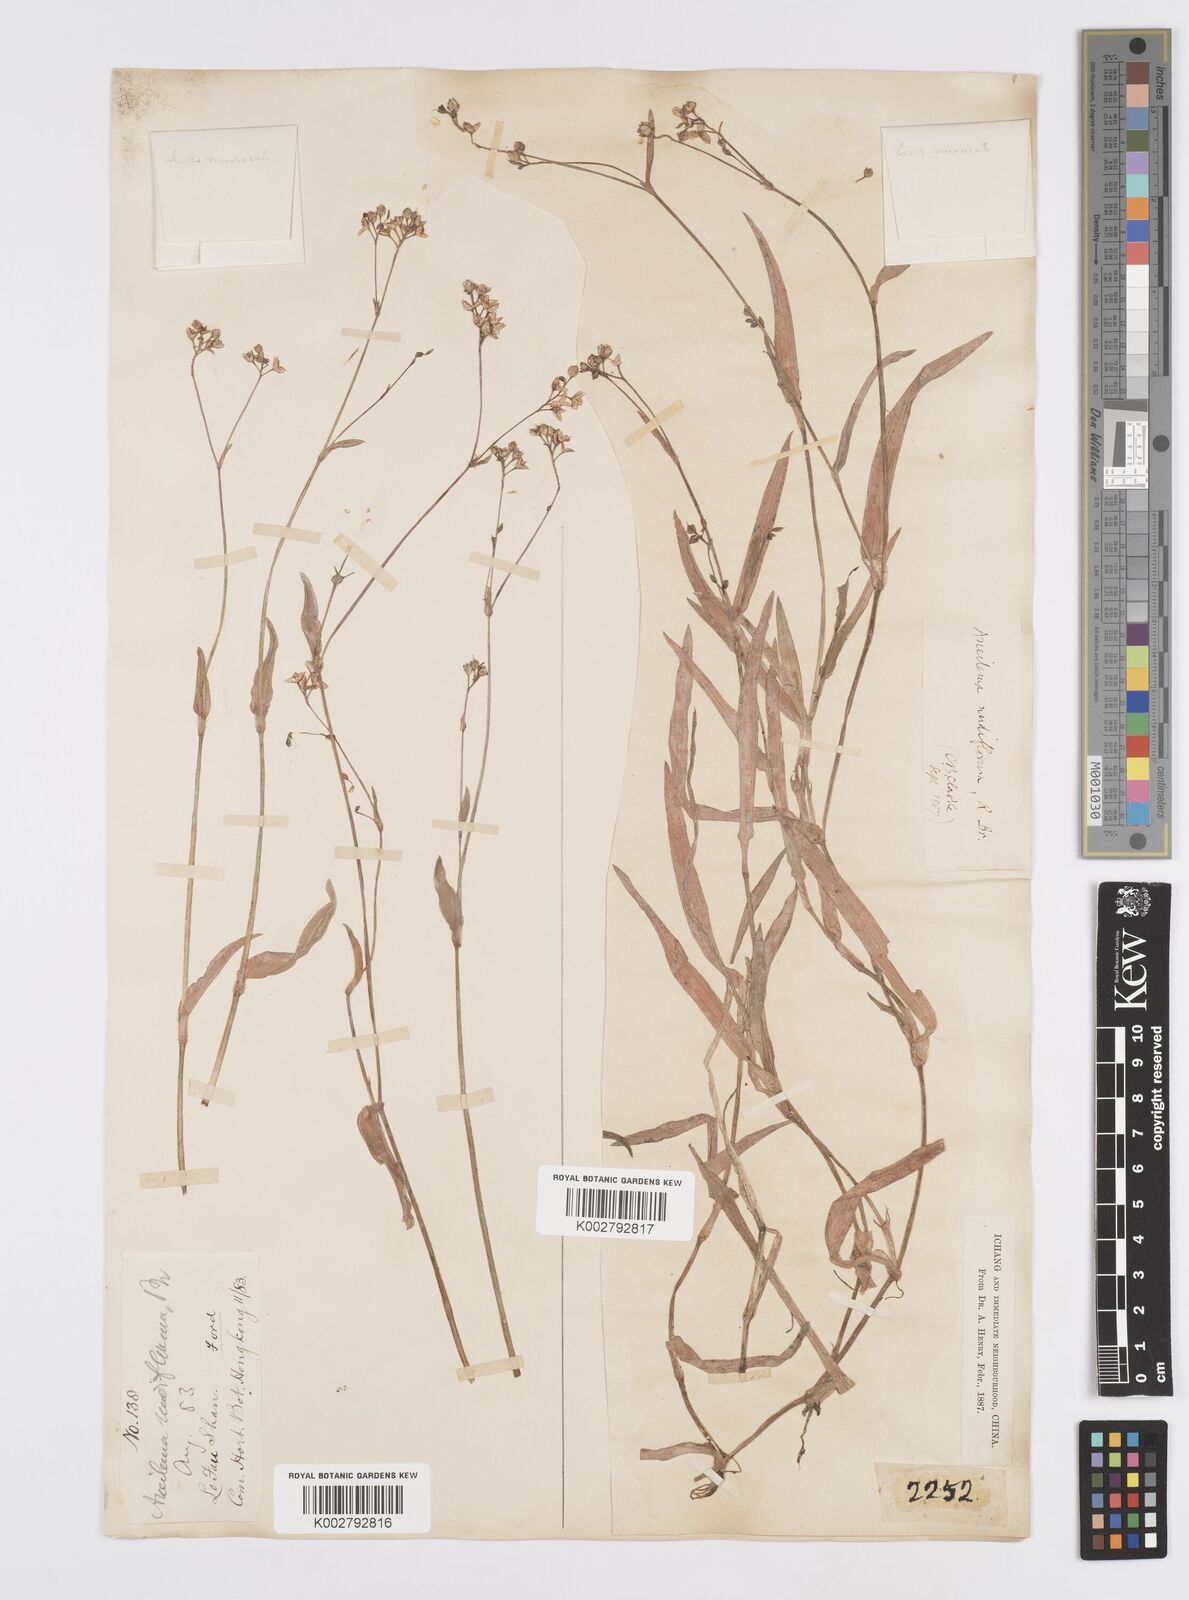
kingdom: Plantae
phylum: Tracheophyta
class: Liliopsida
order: Commelinales
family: Commelinaceae
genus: Murdannia
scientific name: Murdannia nudiflora
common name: Nakedstem dewflower
